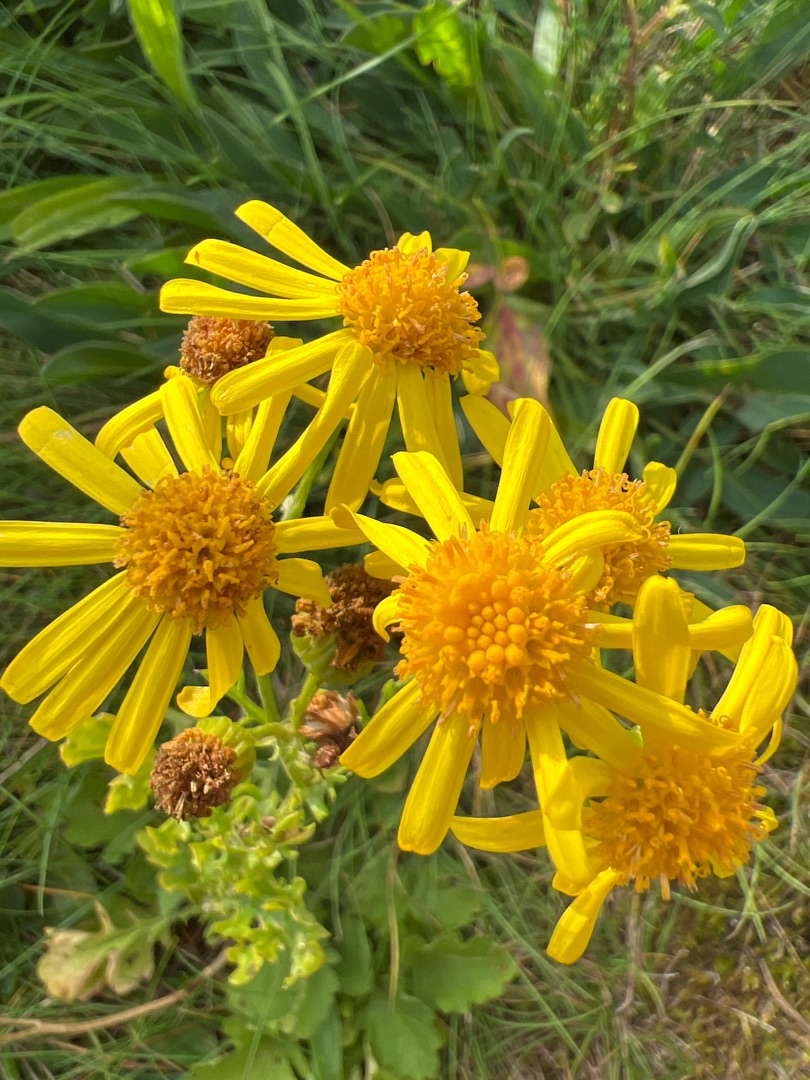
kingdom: Plantae
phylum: Tracheophyta
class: Magnoliopsida
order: Asterales
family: Asteraceae
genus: Jacobaea
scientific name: Jacobaea vulgaris
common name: Eng-brandbæger
